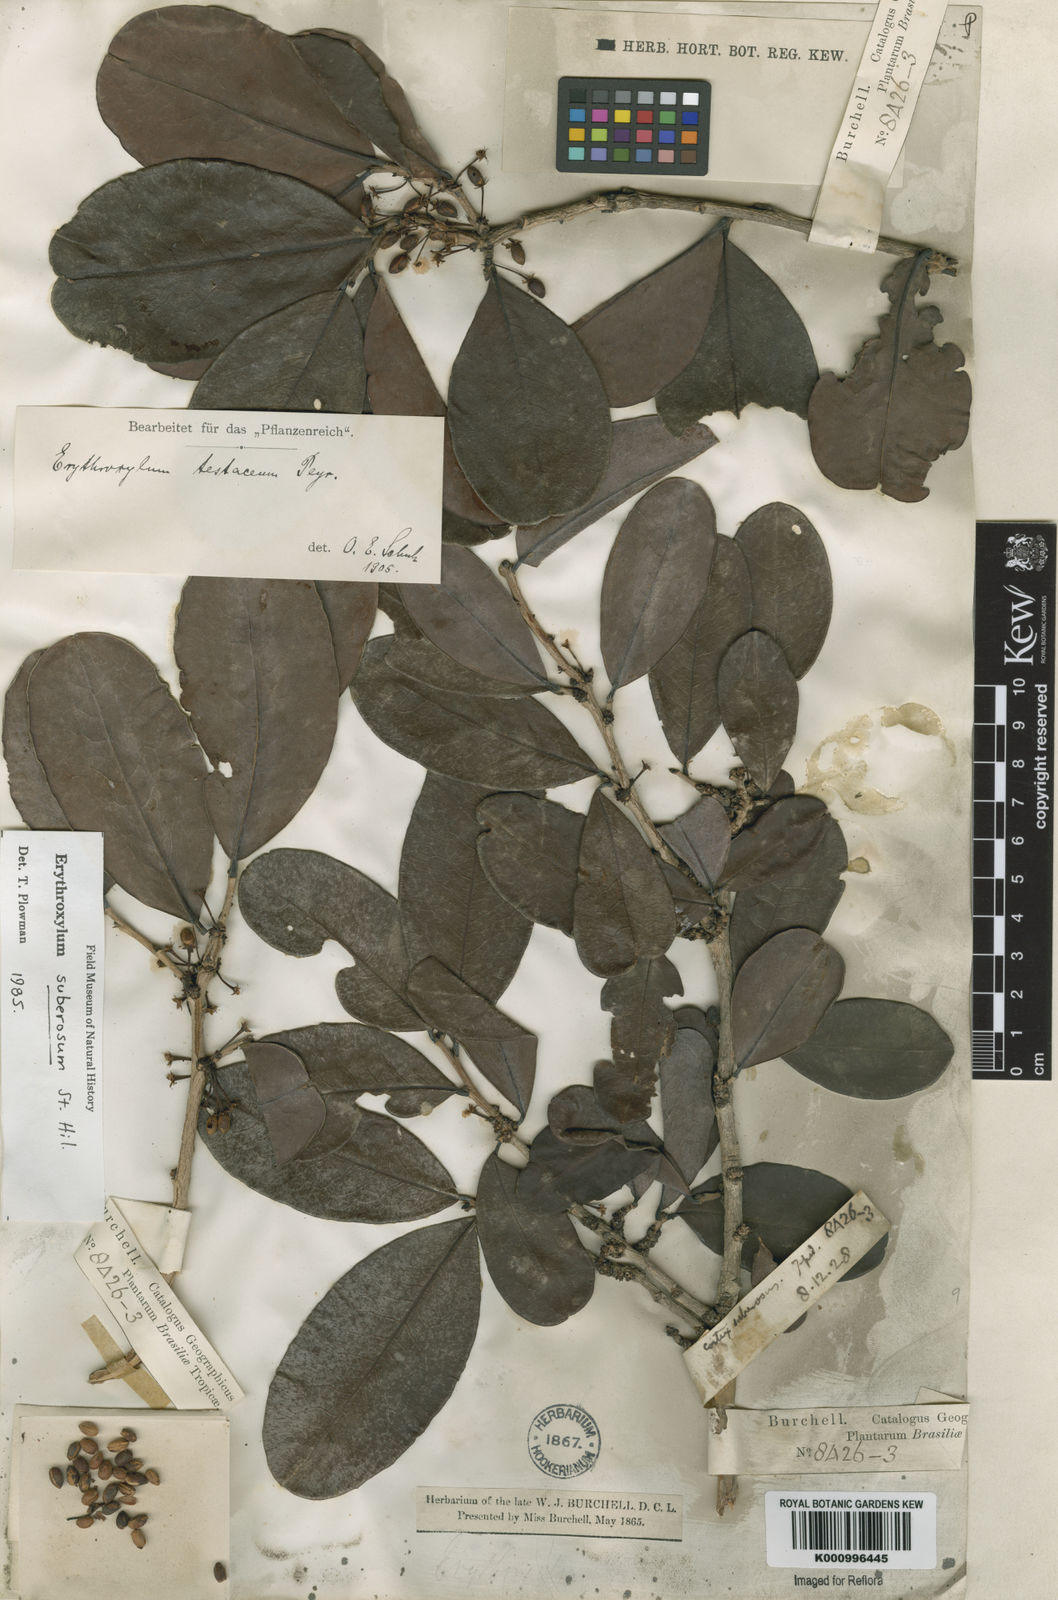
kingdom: Plantae
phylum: Tracheophyta
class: Magnoliopsida
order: Malpighiales
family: Erythroxylaceae
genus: Erythroxylum
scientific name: Erythroxylum suberosum
